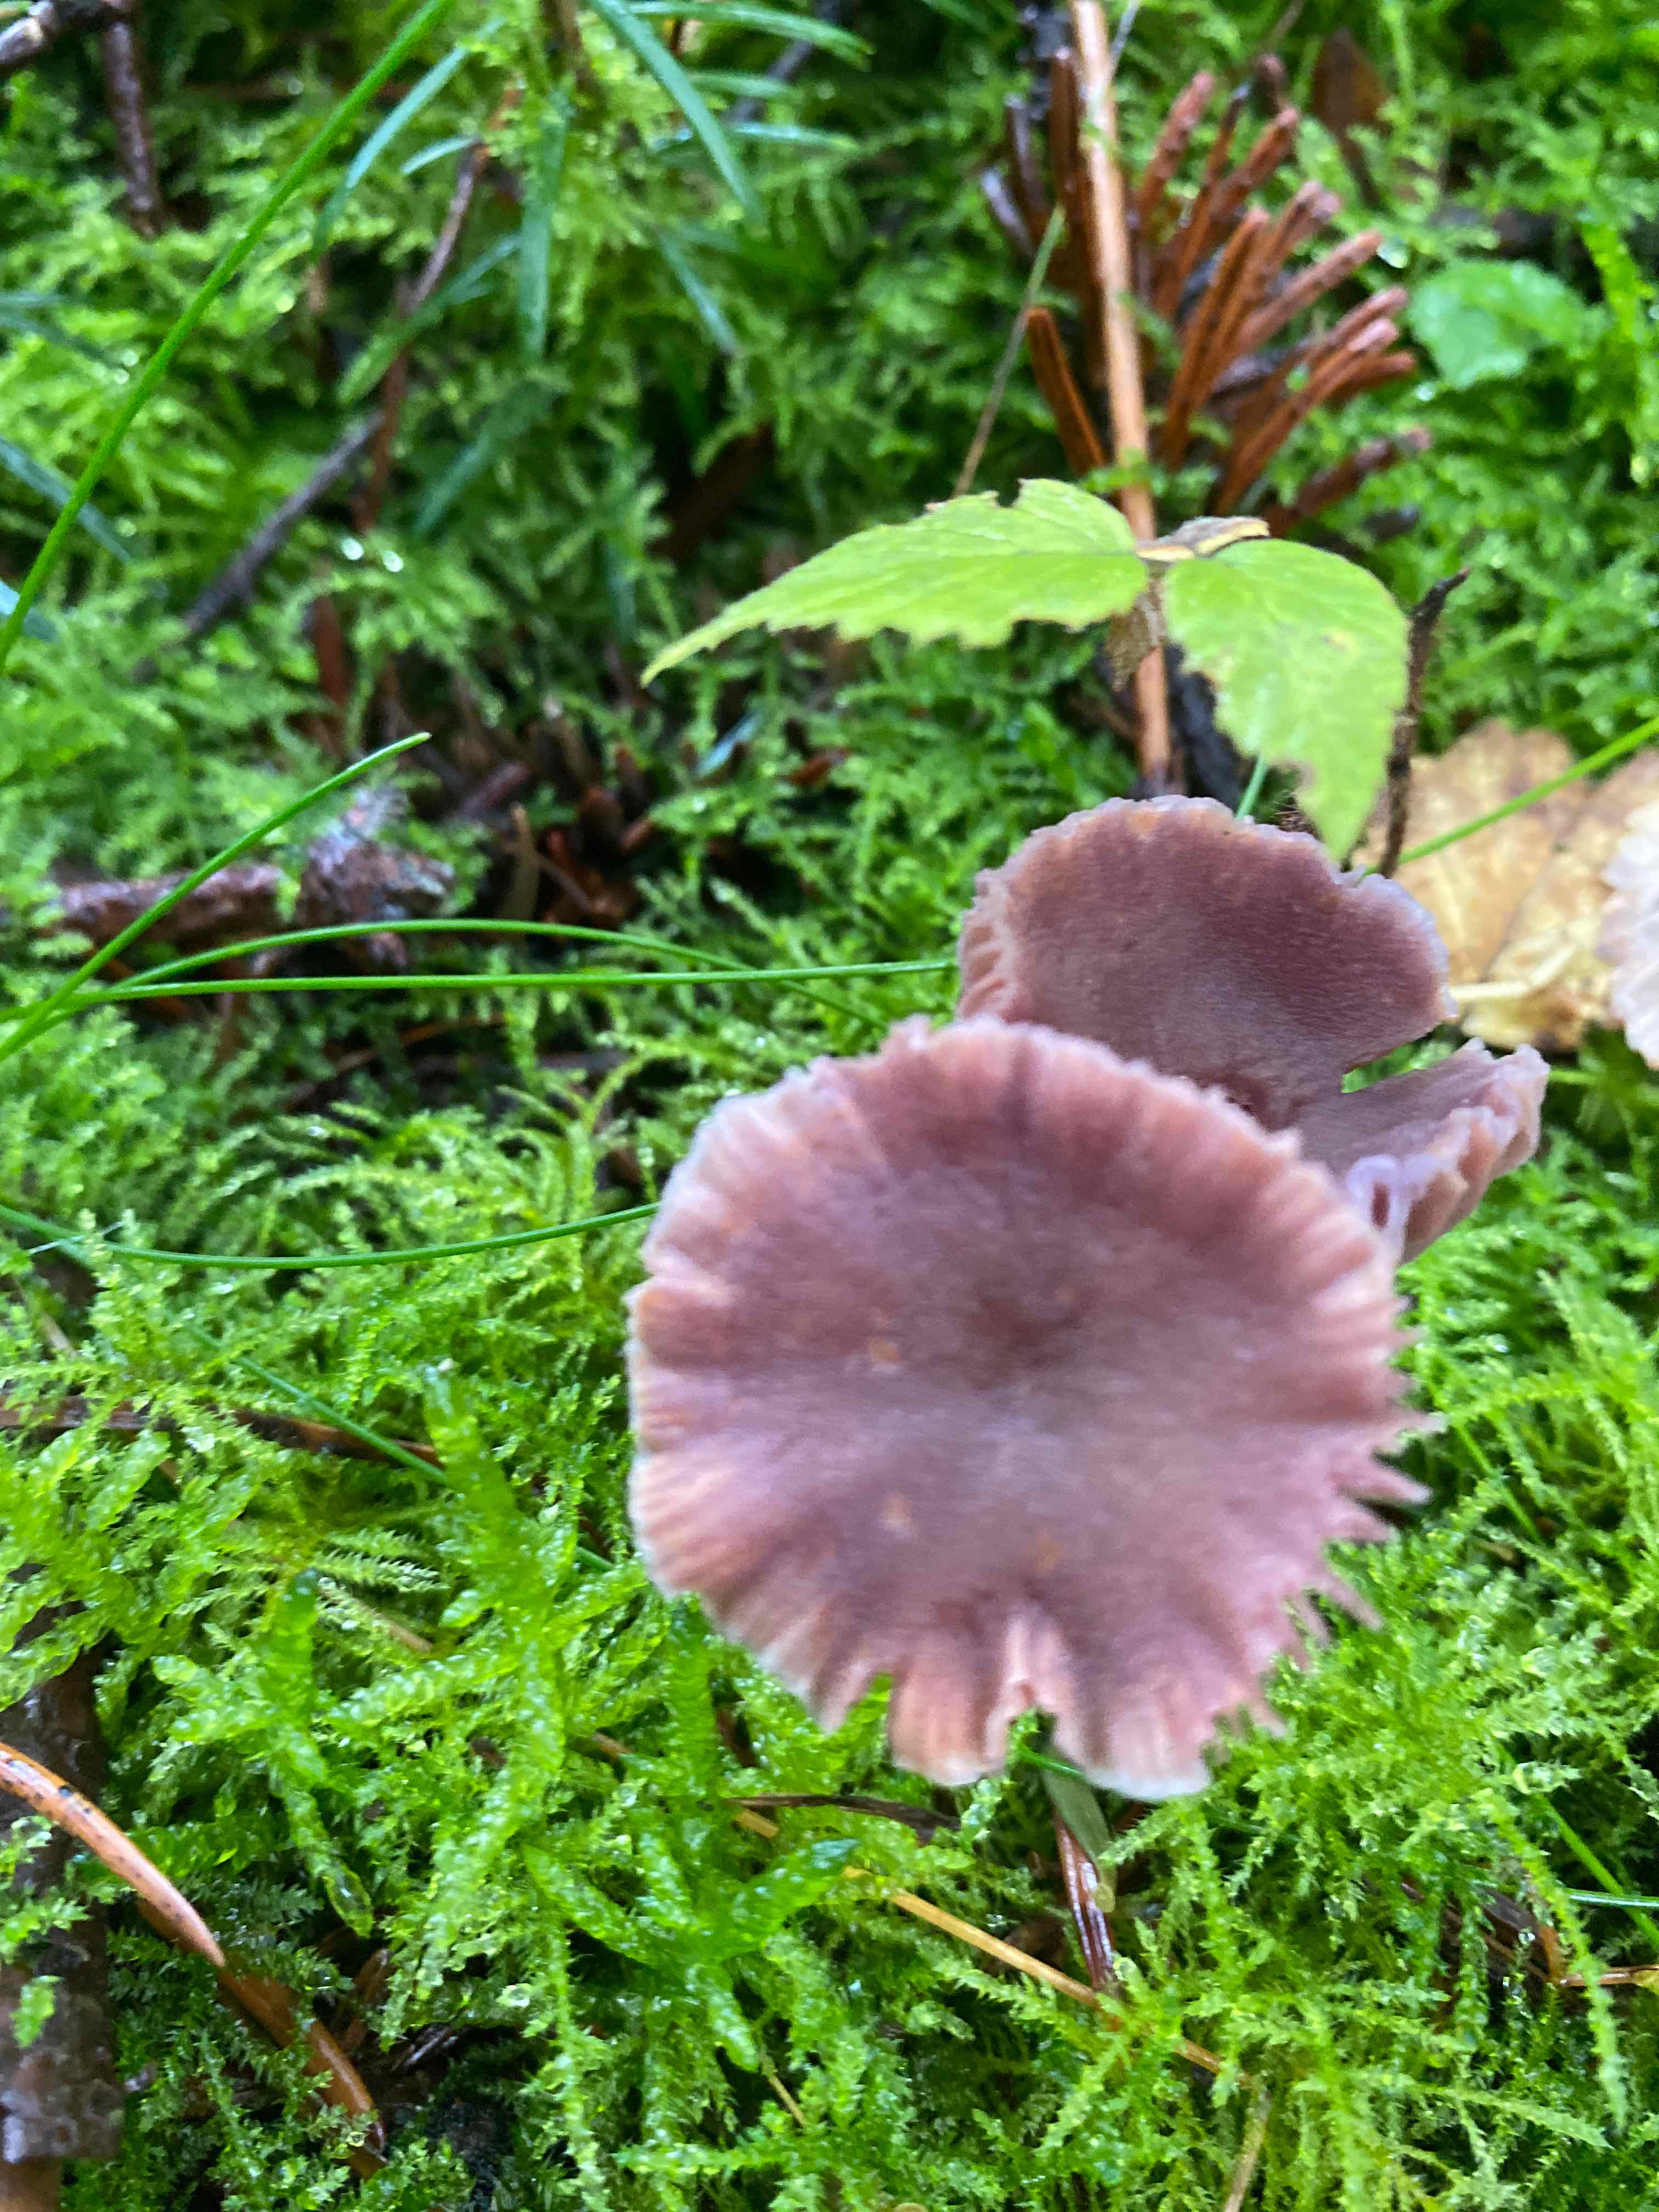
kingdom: Fungi
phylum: Basidiomycota
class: Agaricomycetes
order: Agaricales
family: Hydnangiaceae
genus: Laccaria
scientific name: Laccaria amethystina
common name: violet ametysthat
